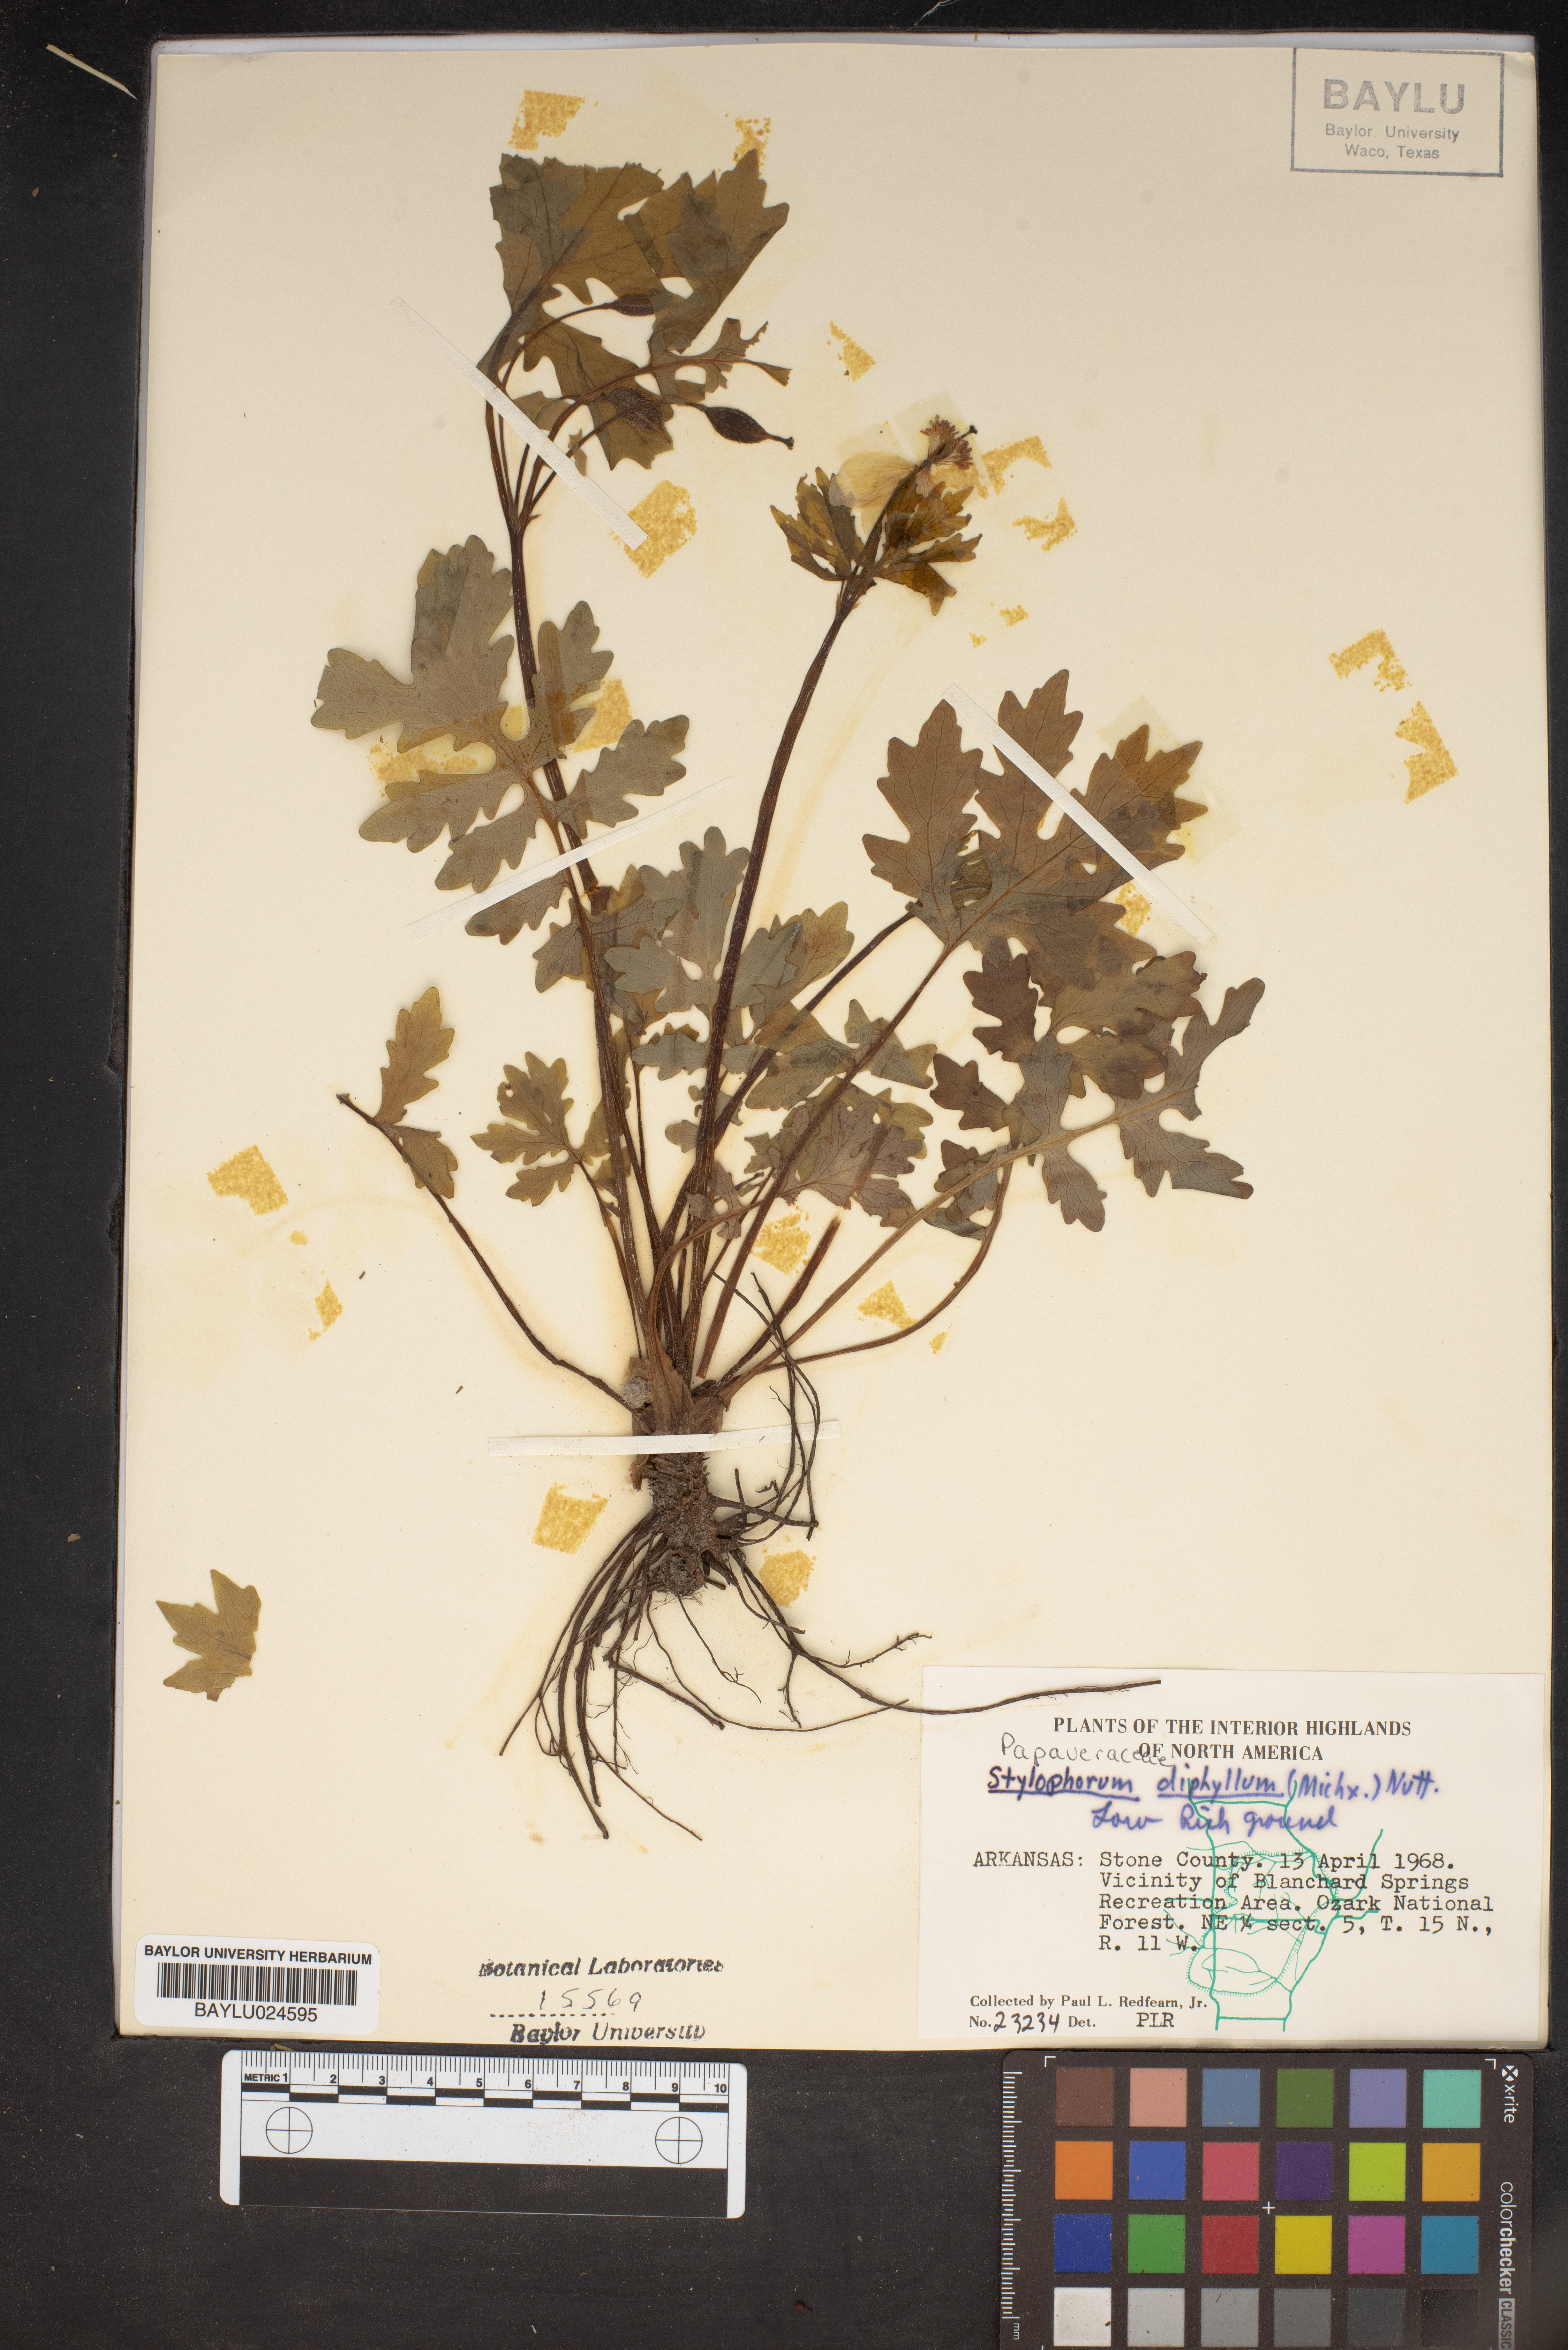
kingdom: Plantae
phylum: Tracheophyta
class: Magnoliopsida
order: Ranunculales
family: Papaveraceae
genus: Stylophorum
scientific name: Stylophorum diphyllum
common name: Celandine poppy
